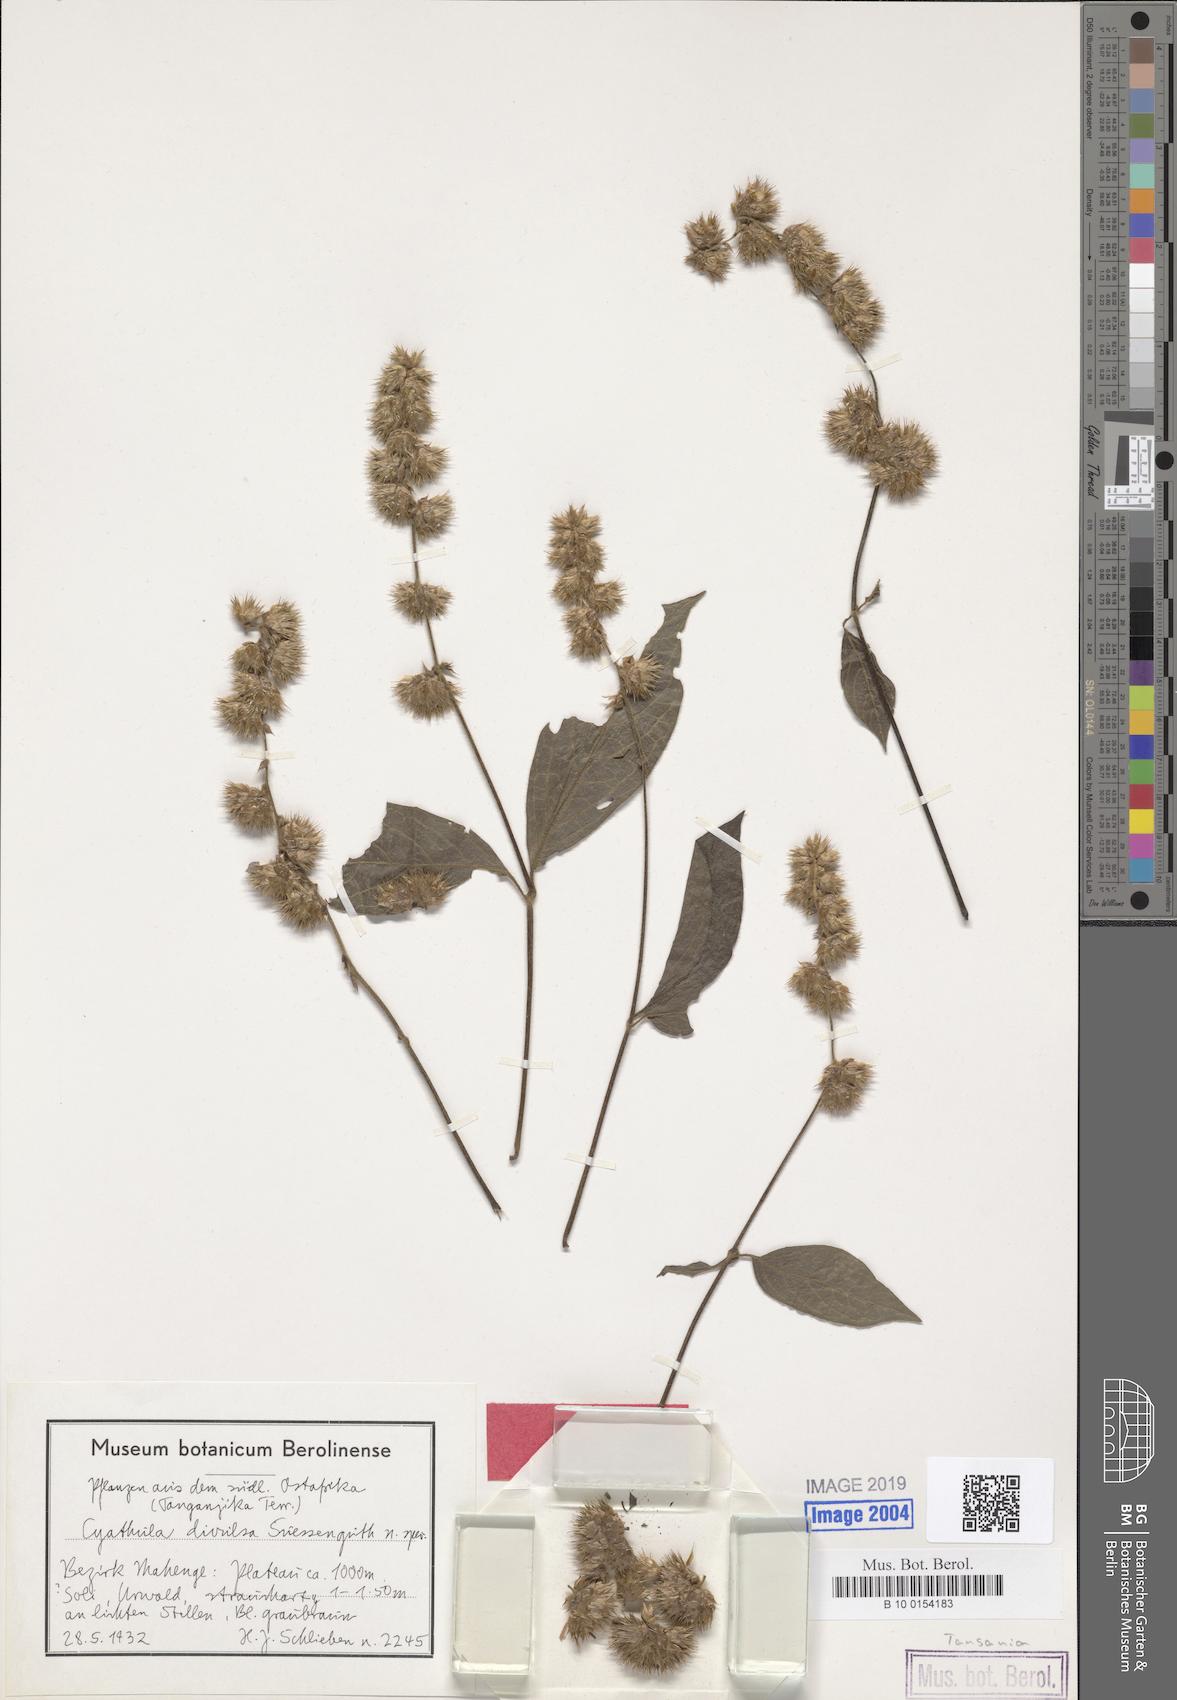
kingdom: Plantae
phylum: Tracheophyta
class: Magnoliopsida
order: Caryophyllales
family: Amaranthaceae
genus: Cyathula
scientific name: Cyathula divulsa
